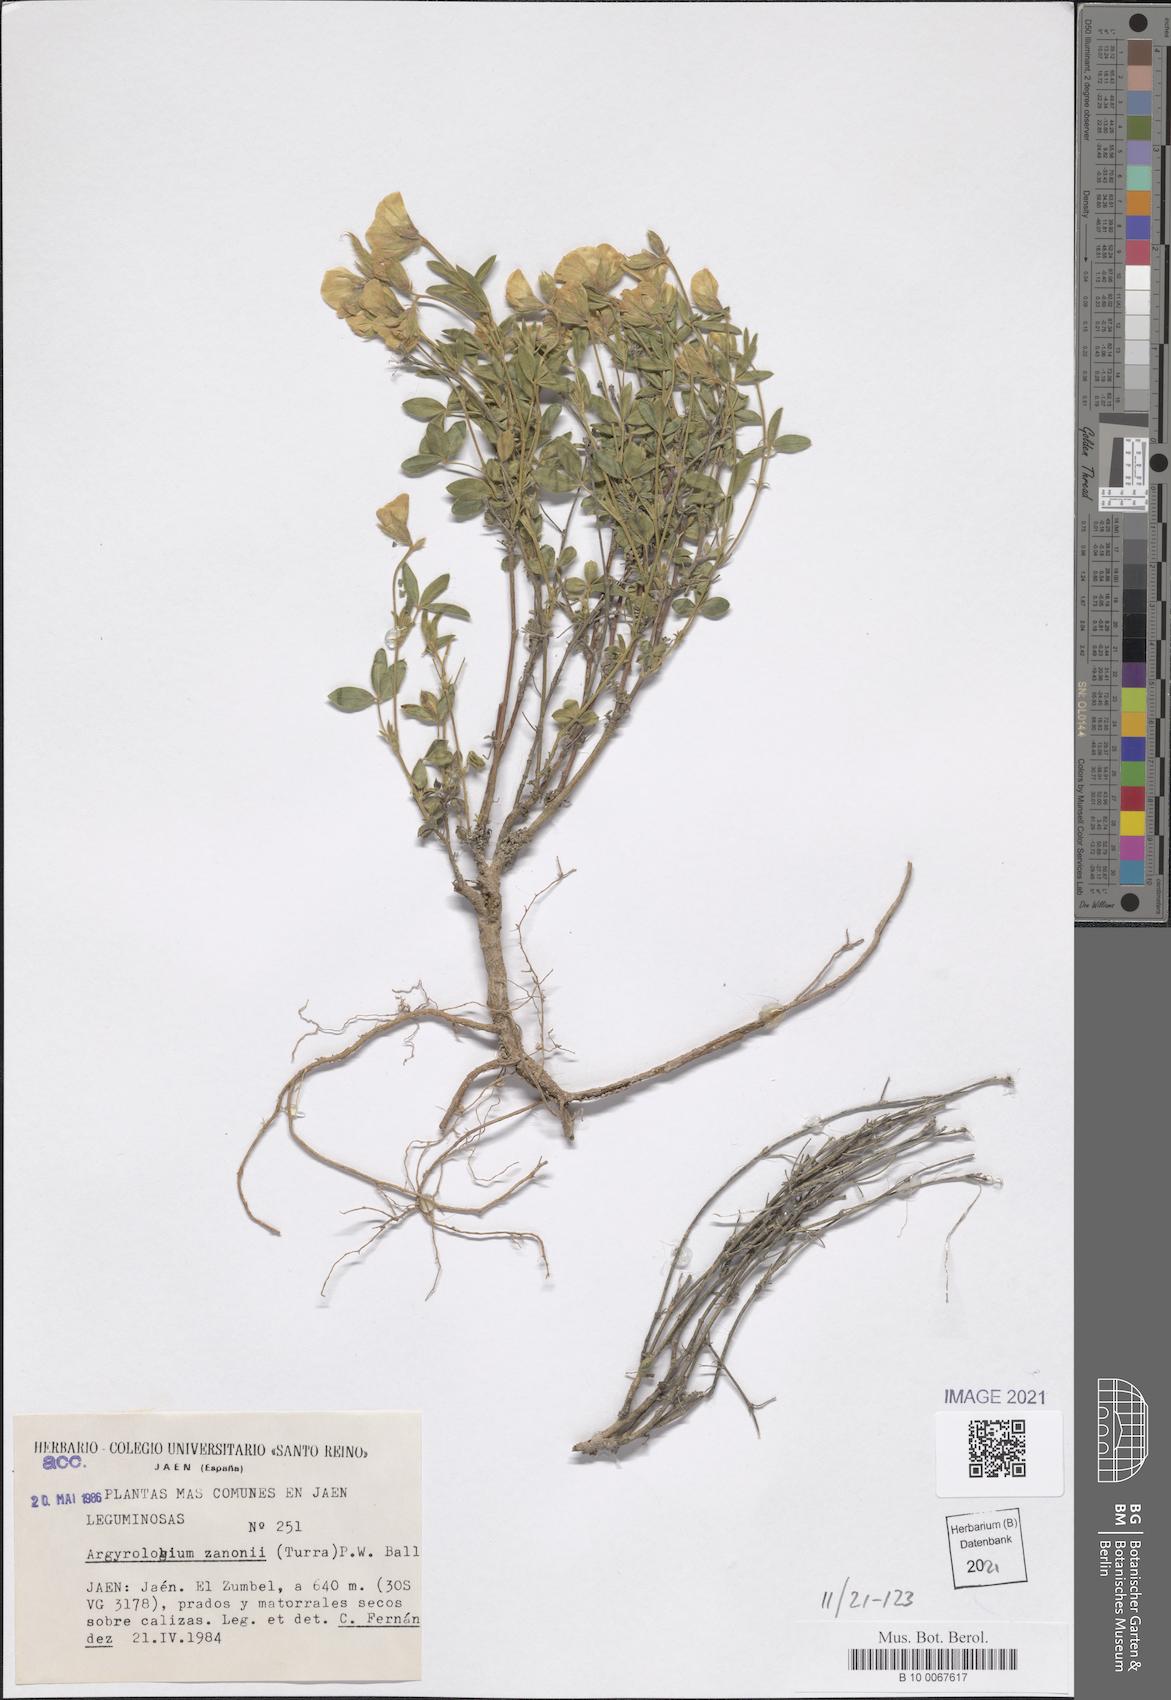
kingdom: Plantae
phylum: Tracheophyta
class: Magnoliopsida
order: Fabales
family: Fabaceae
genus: Argyrolobium
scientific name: Argyrolobium zanonii
